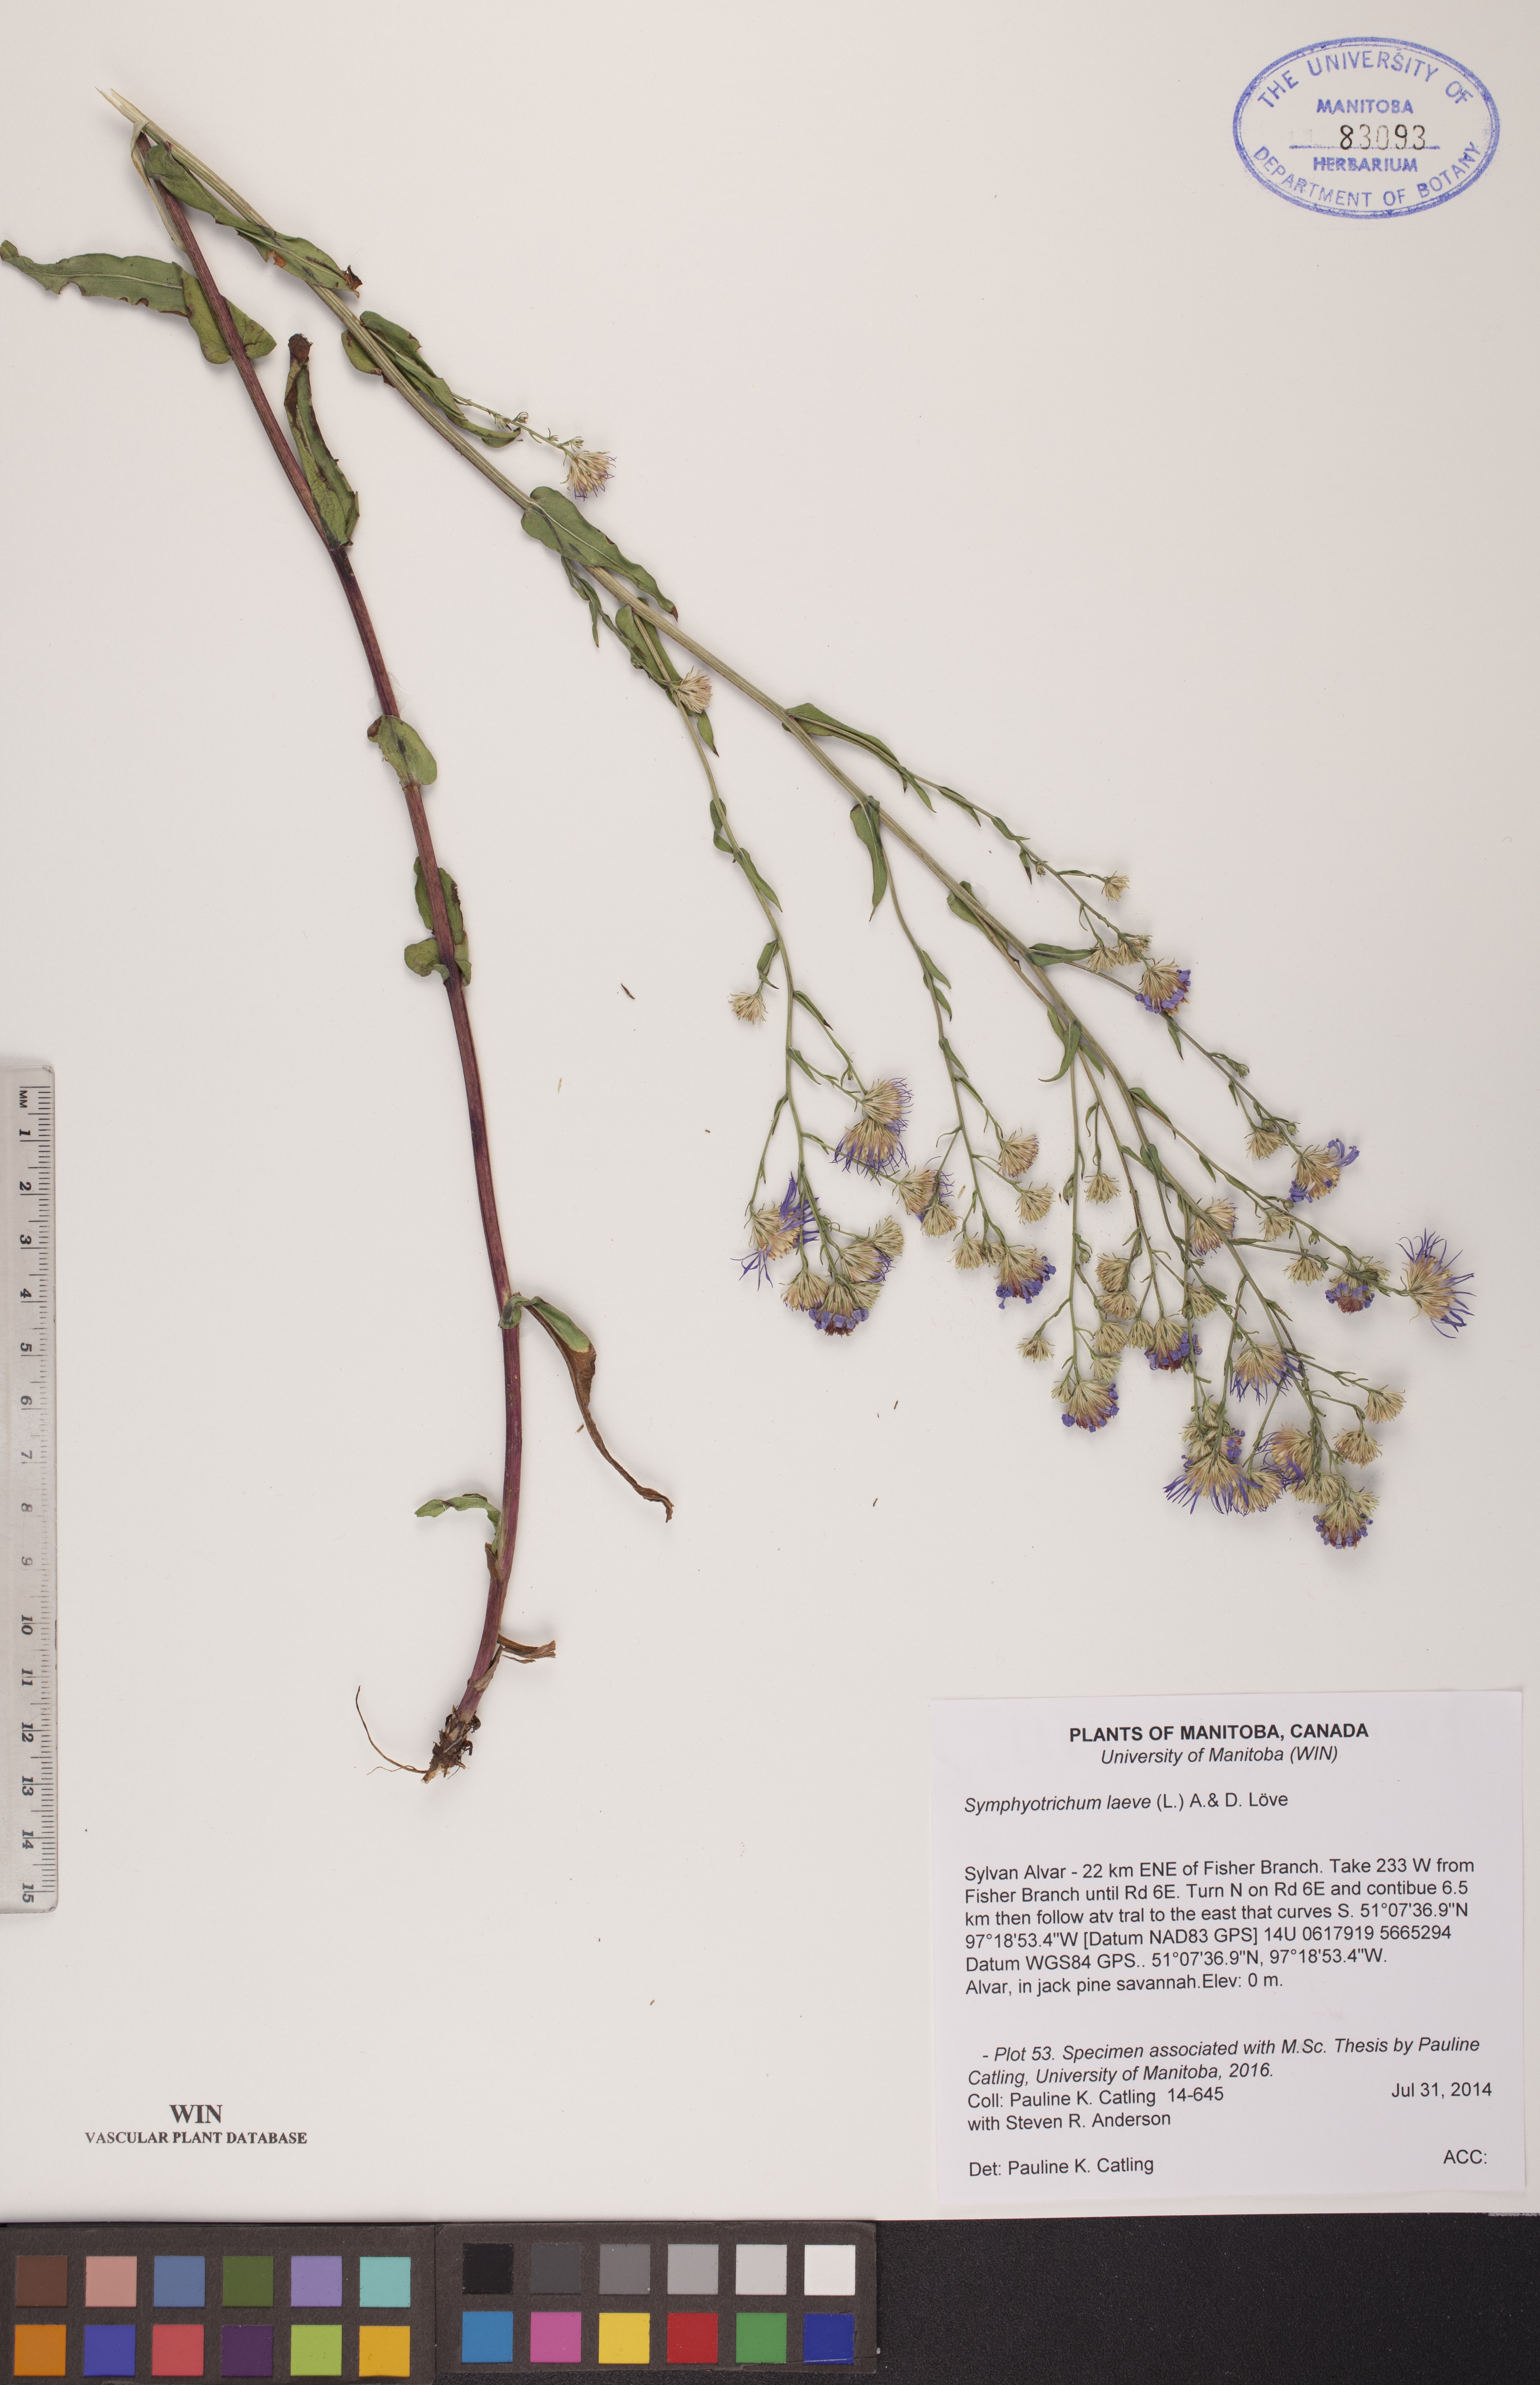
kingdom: Plantae
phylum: Tracheophyta
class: Magnoliopsida
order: Asterales
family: Asteraceae
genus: Symphyotrichum
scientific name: Symphyotrichum laeve
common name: Glaucous aster
